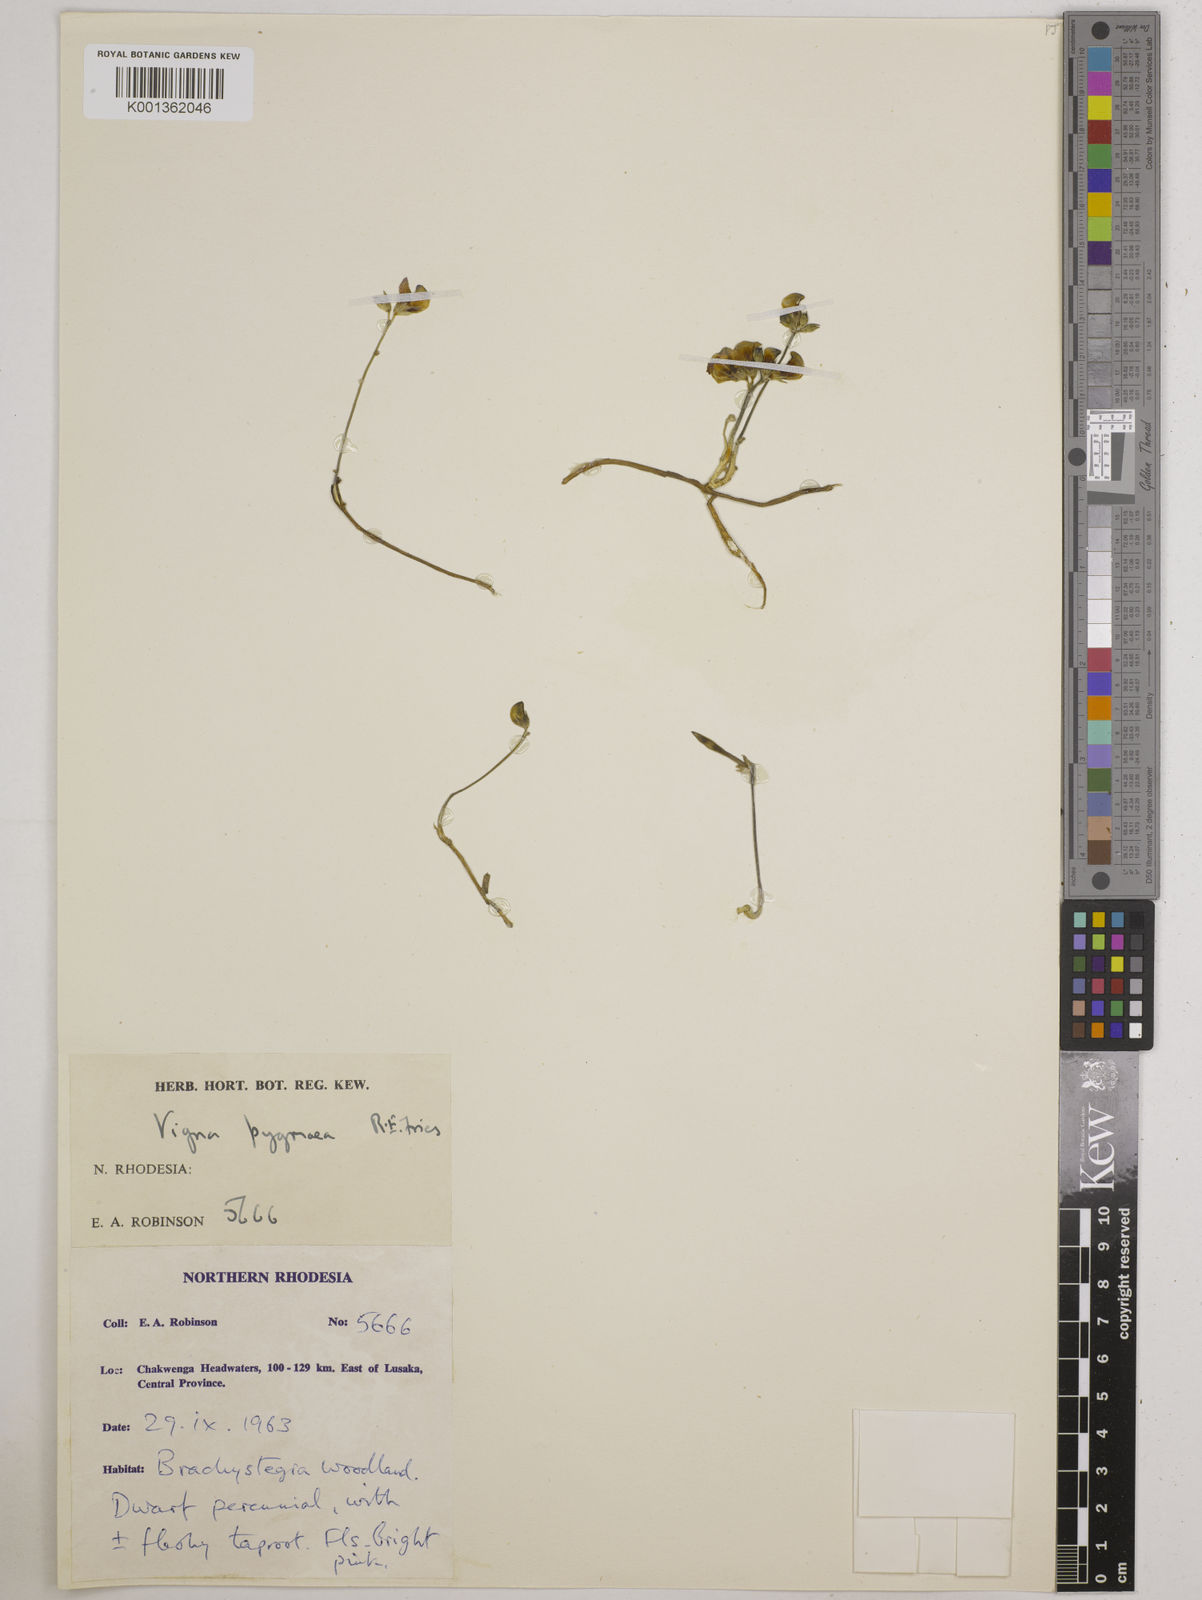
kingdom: Plantae
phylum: Tracheophyta
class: Magnoliopsida
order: Fabales
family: Fabaceae
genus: Vigna
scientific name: Vigna pygmaea
